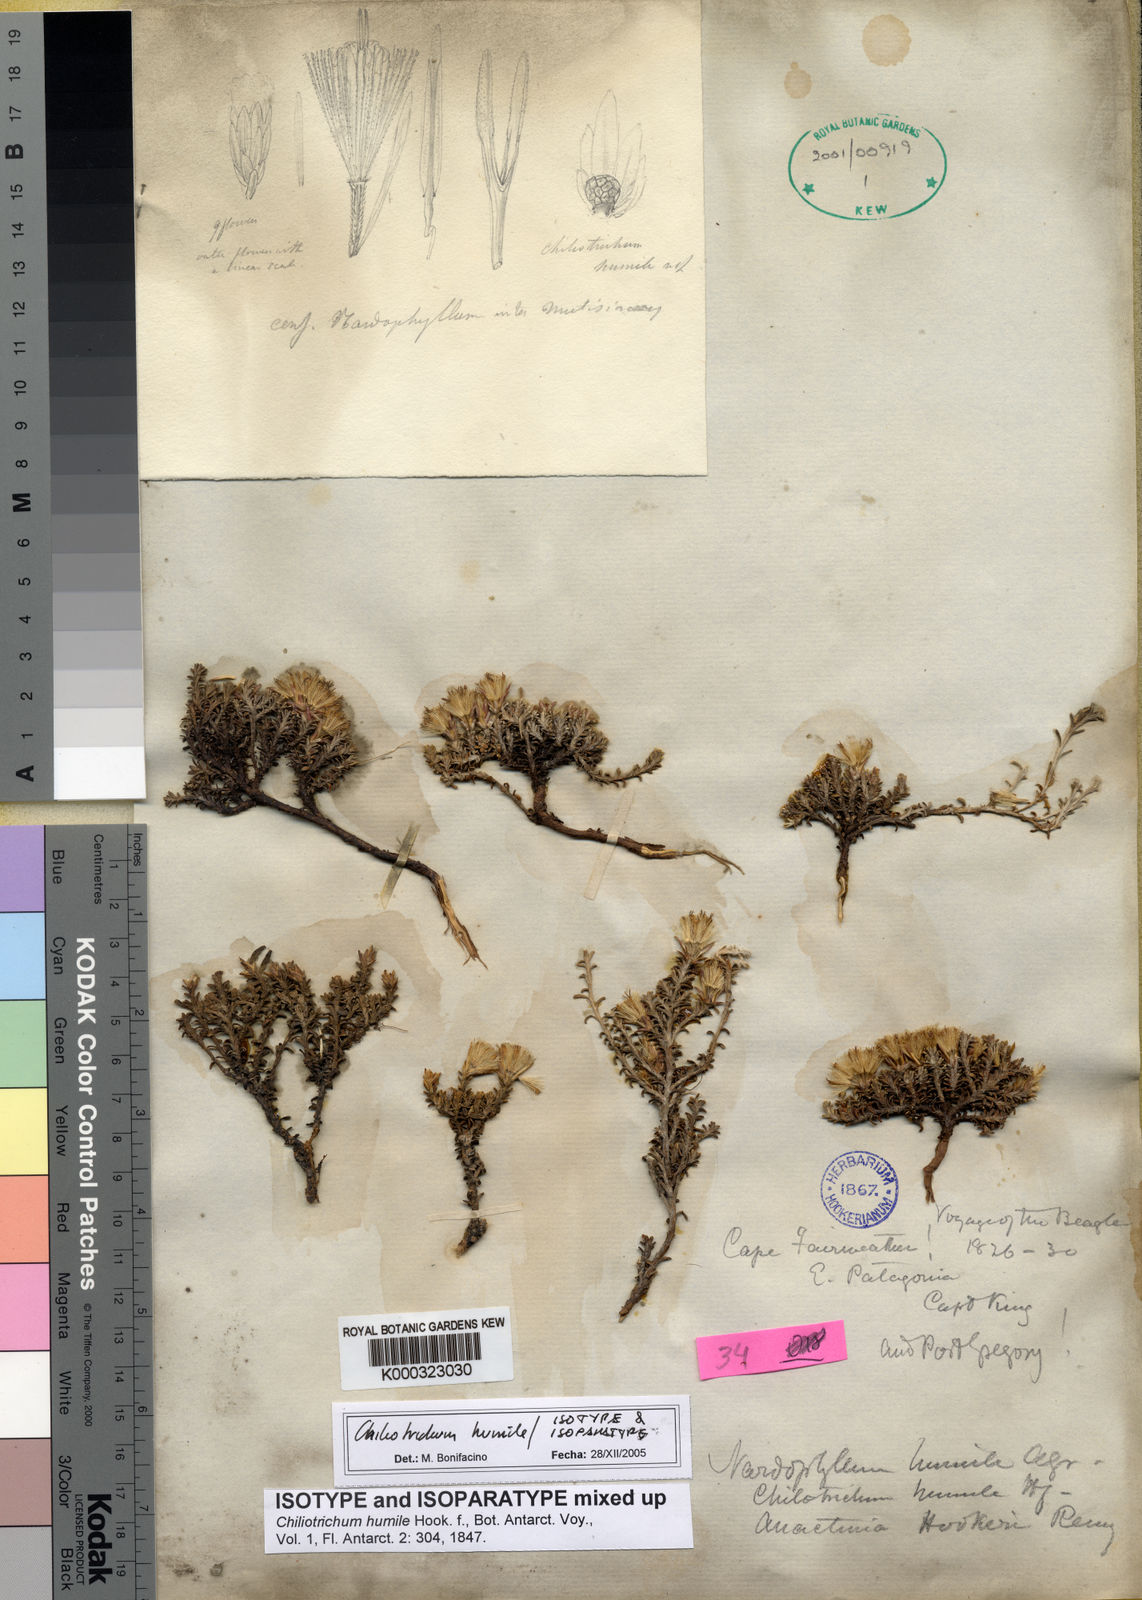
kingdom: Plantae
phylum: Tracheophyta
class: Magnoliopsida
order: Asterales
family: Asteraceae
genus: Nardophyllum
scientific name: Nardophyllum bryoides
